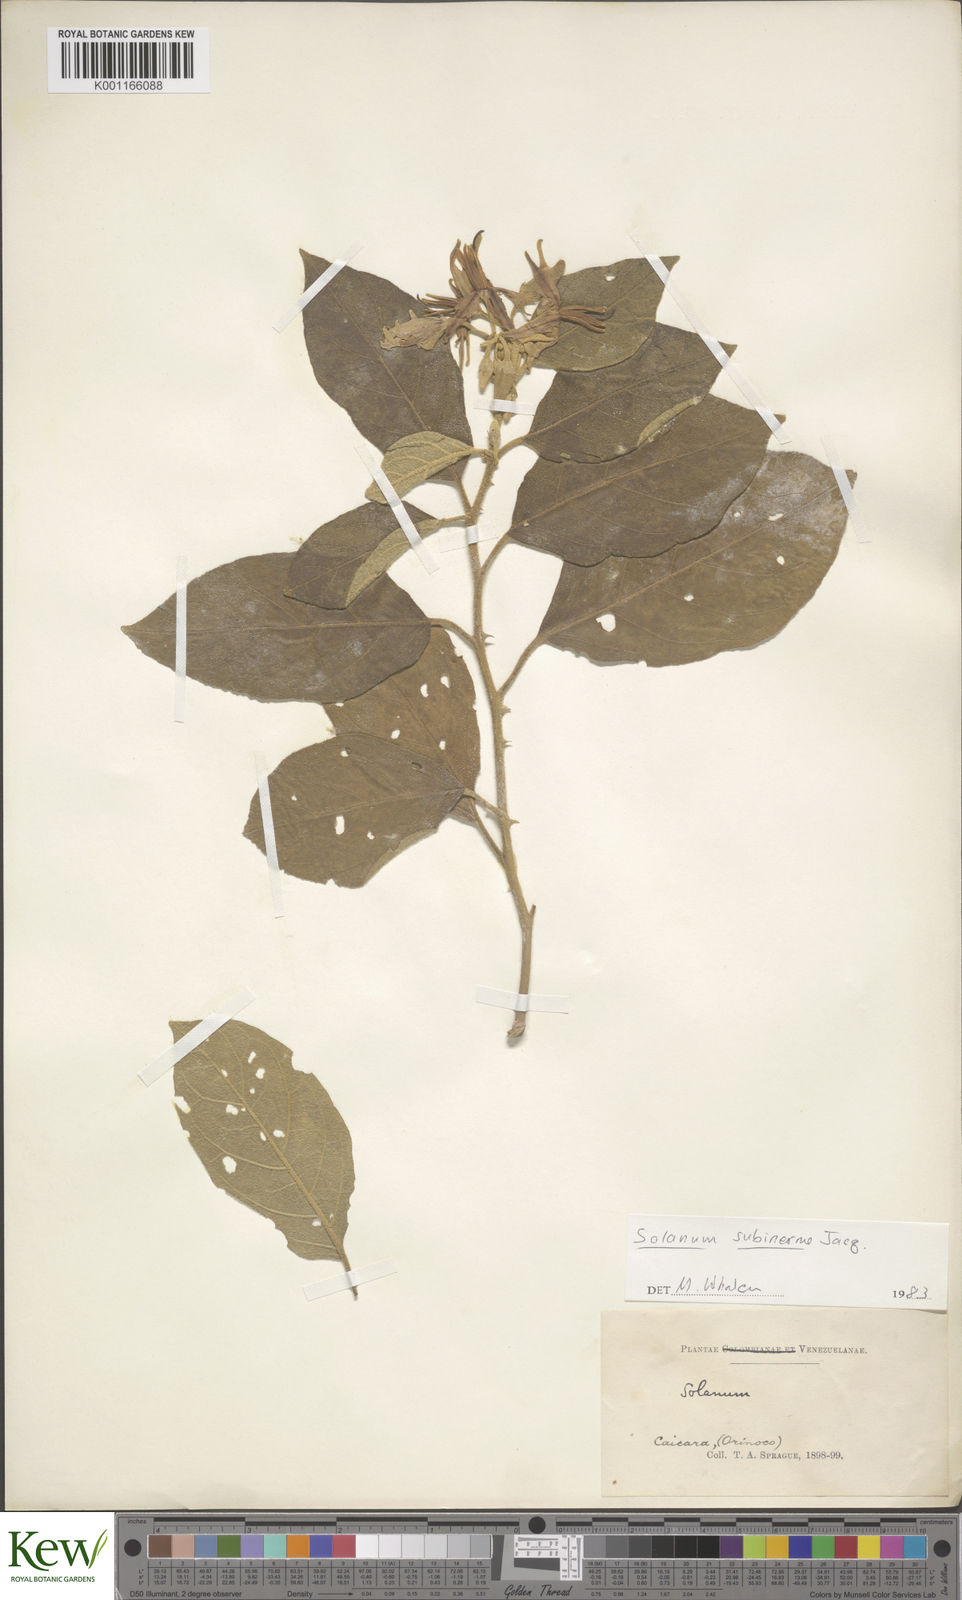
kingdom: Plantae
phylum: Tracheophyta
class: Magnoliopsida
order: Solanales
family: Solanaceae
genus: Solanum
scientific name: Solanum subinerme
